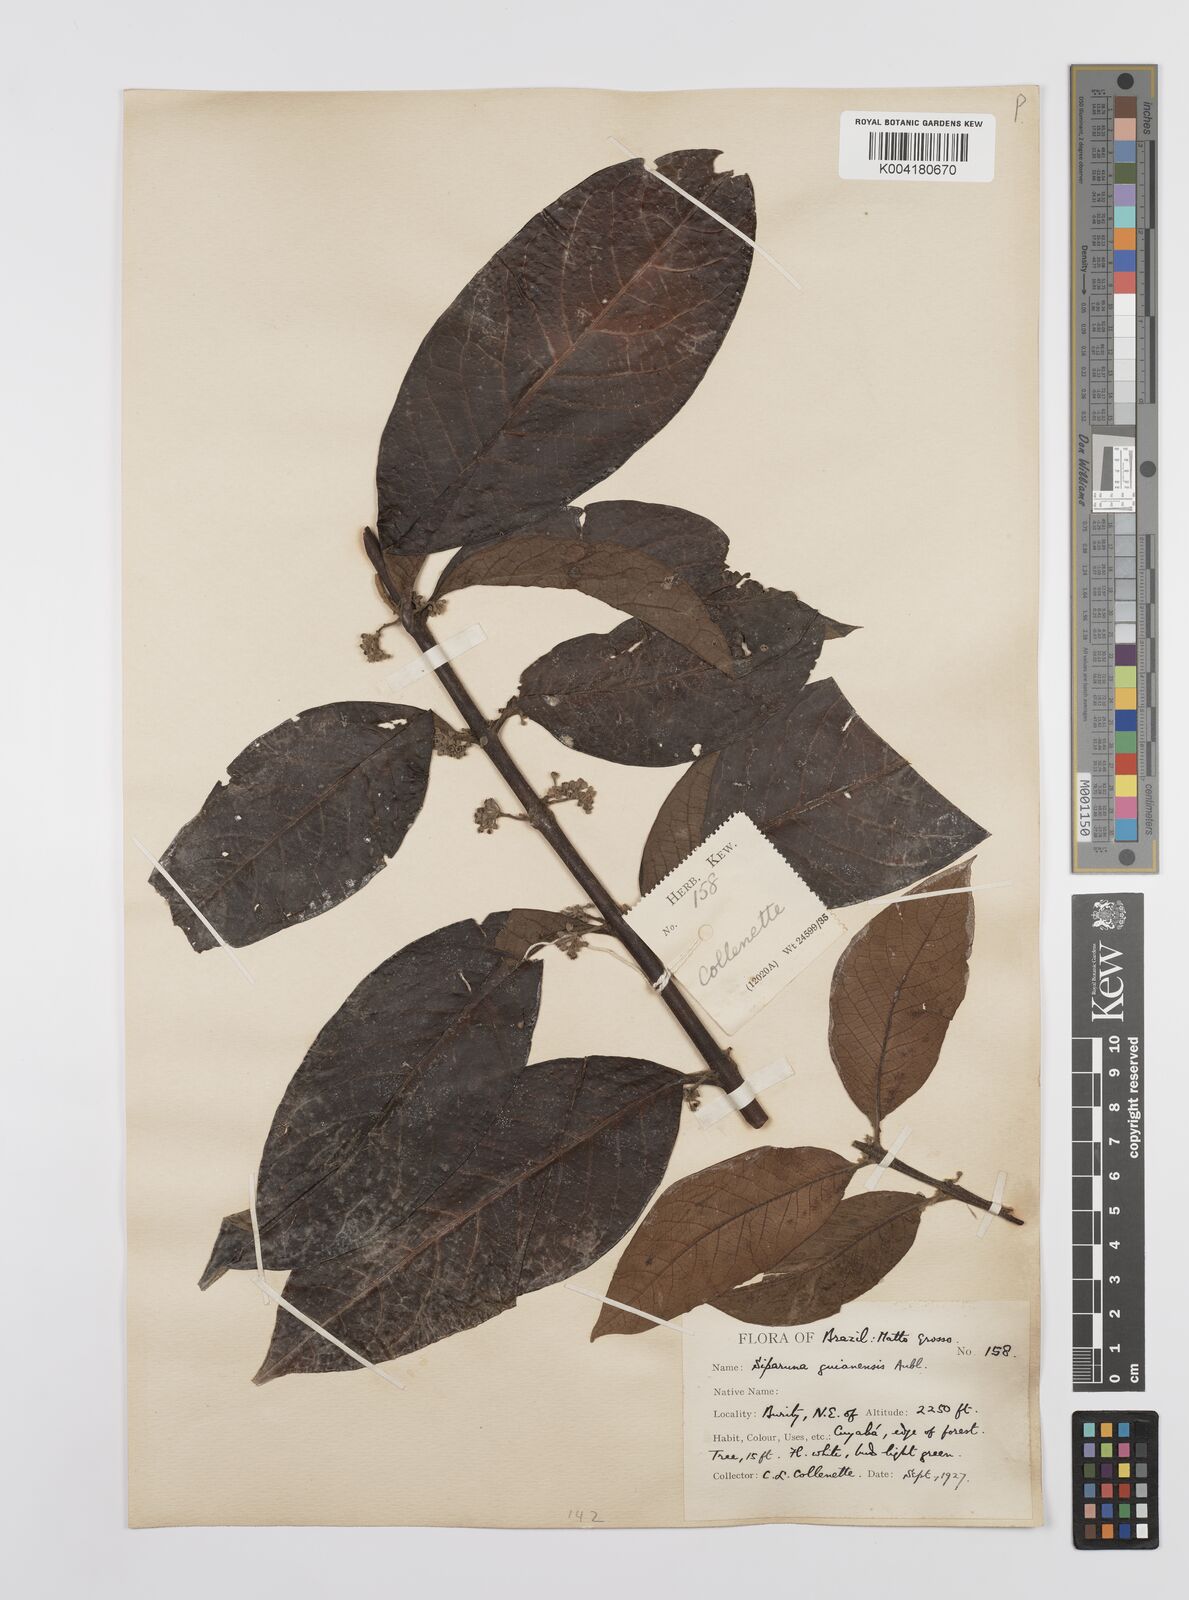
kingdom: Plantae
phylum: Tracheophyta
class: Magnoliopsida
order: Laurales
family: Siparunaceae
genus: Siparuna
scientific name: Siparuna guianensis
